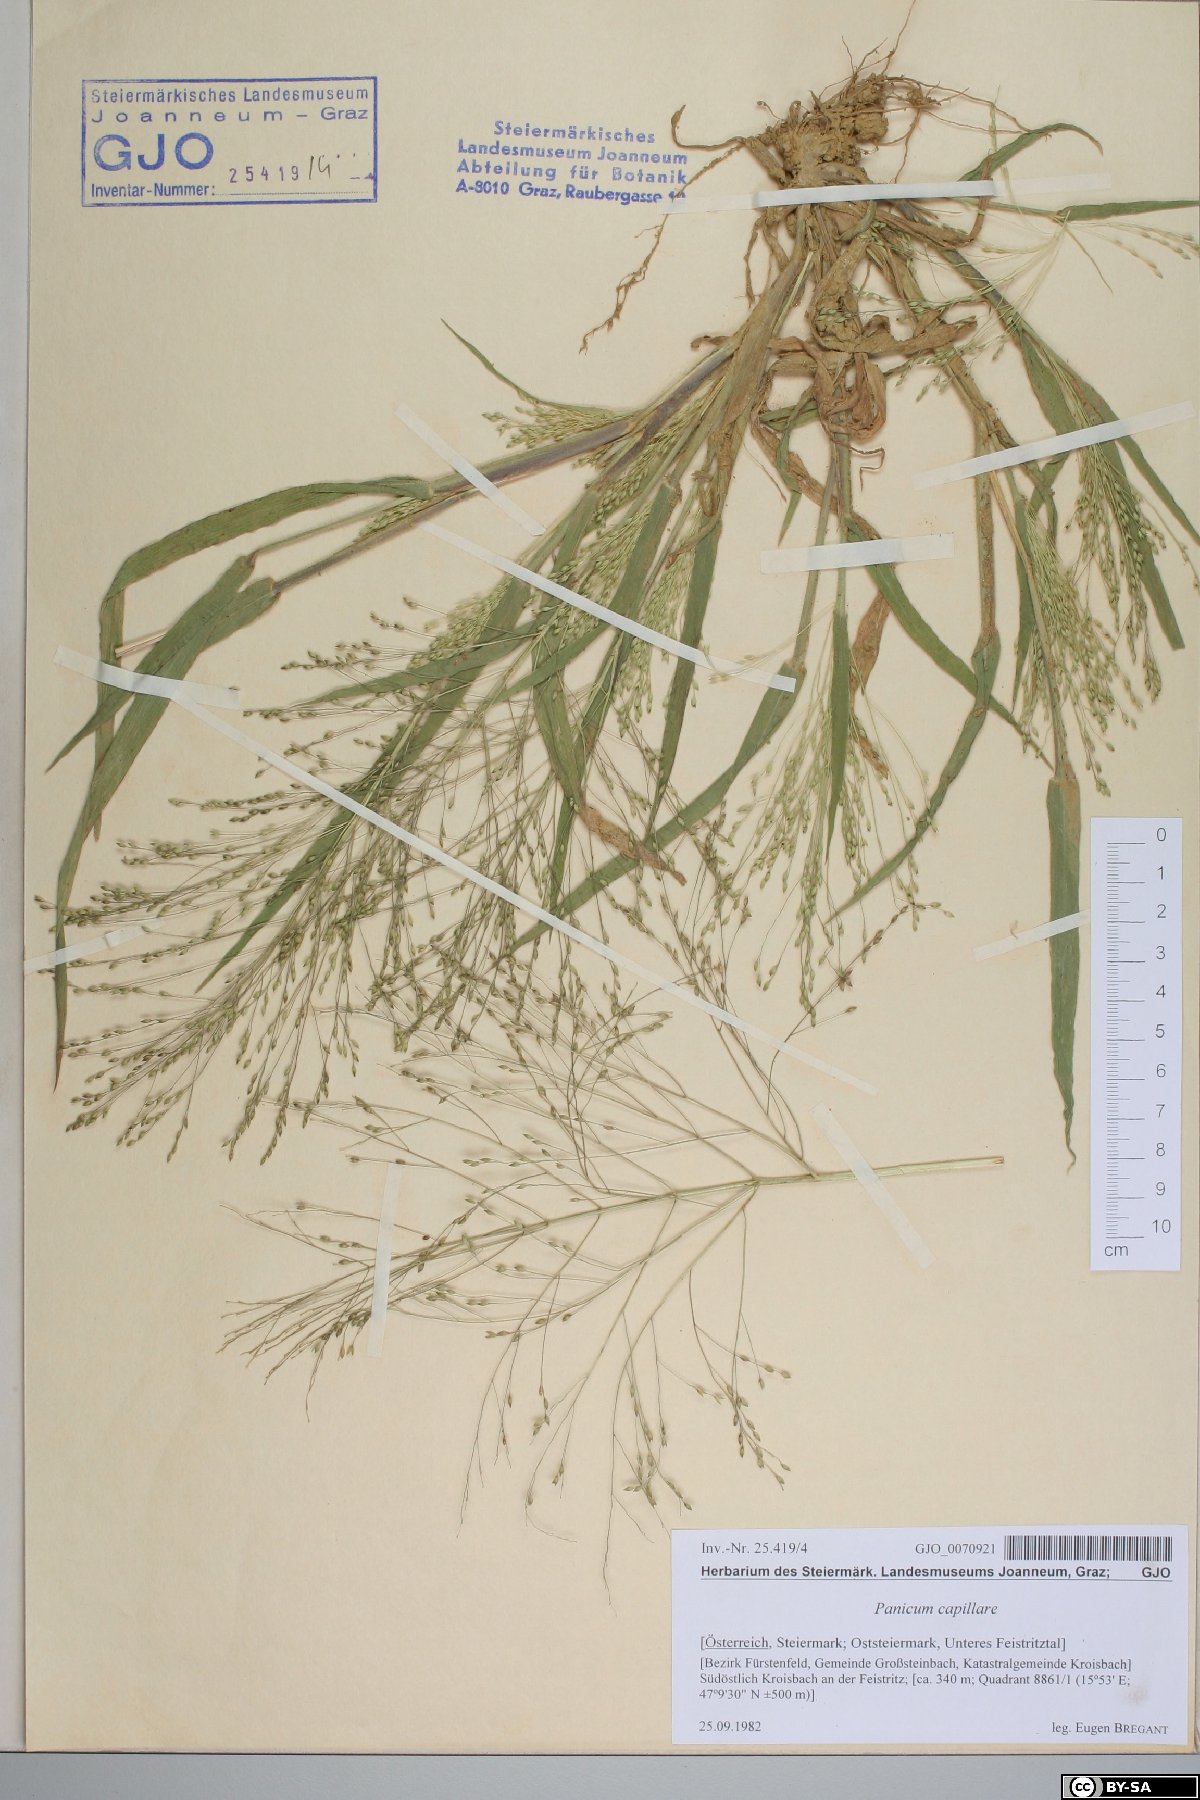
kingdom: Plantae
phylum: Tracheophyta
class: Liliopsida
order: Poales
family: Poaceae
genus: Panicum
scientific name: Panicum capillare
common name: Witch-grass
